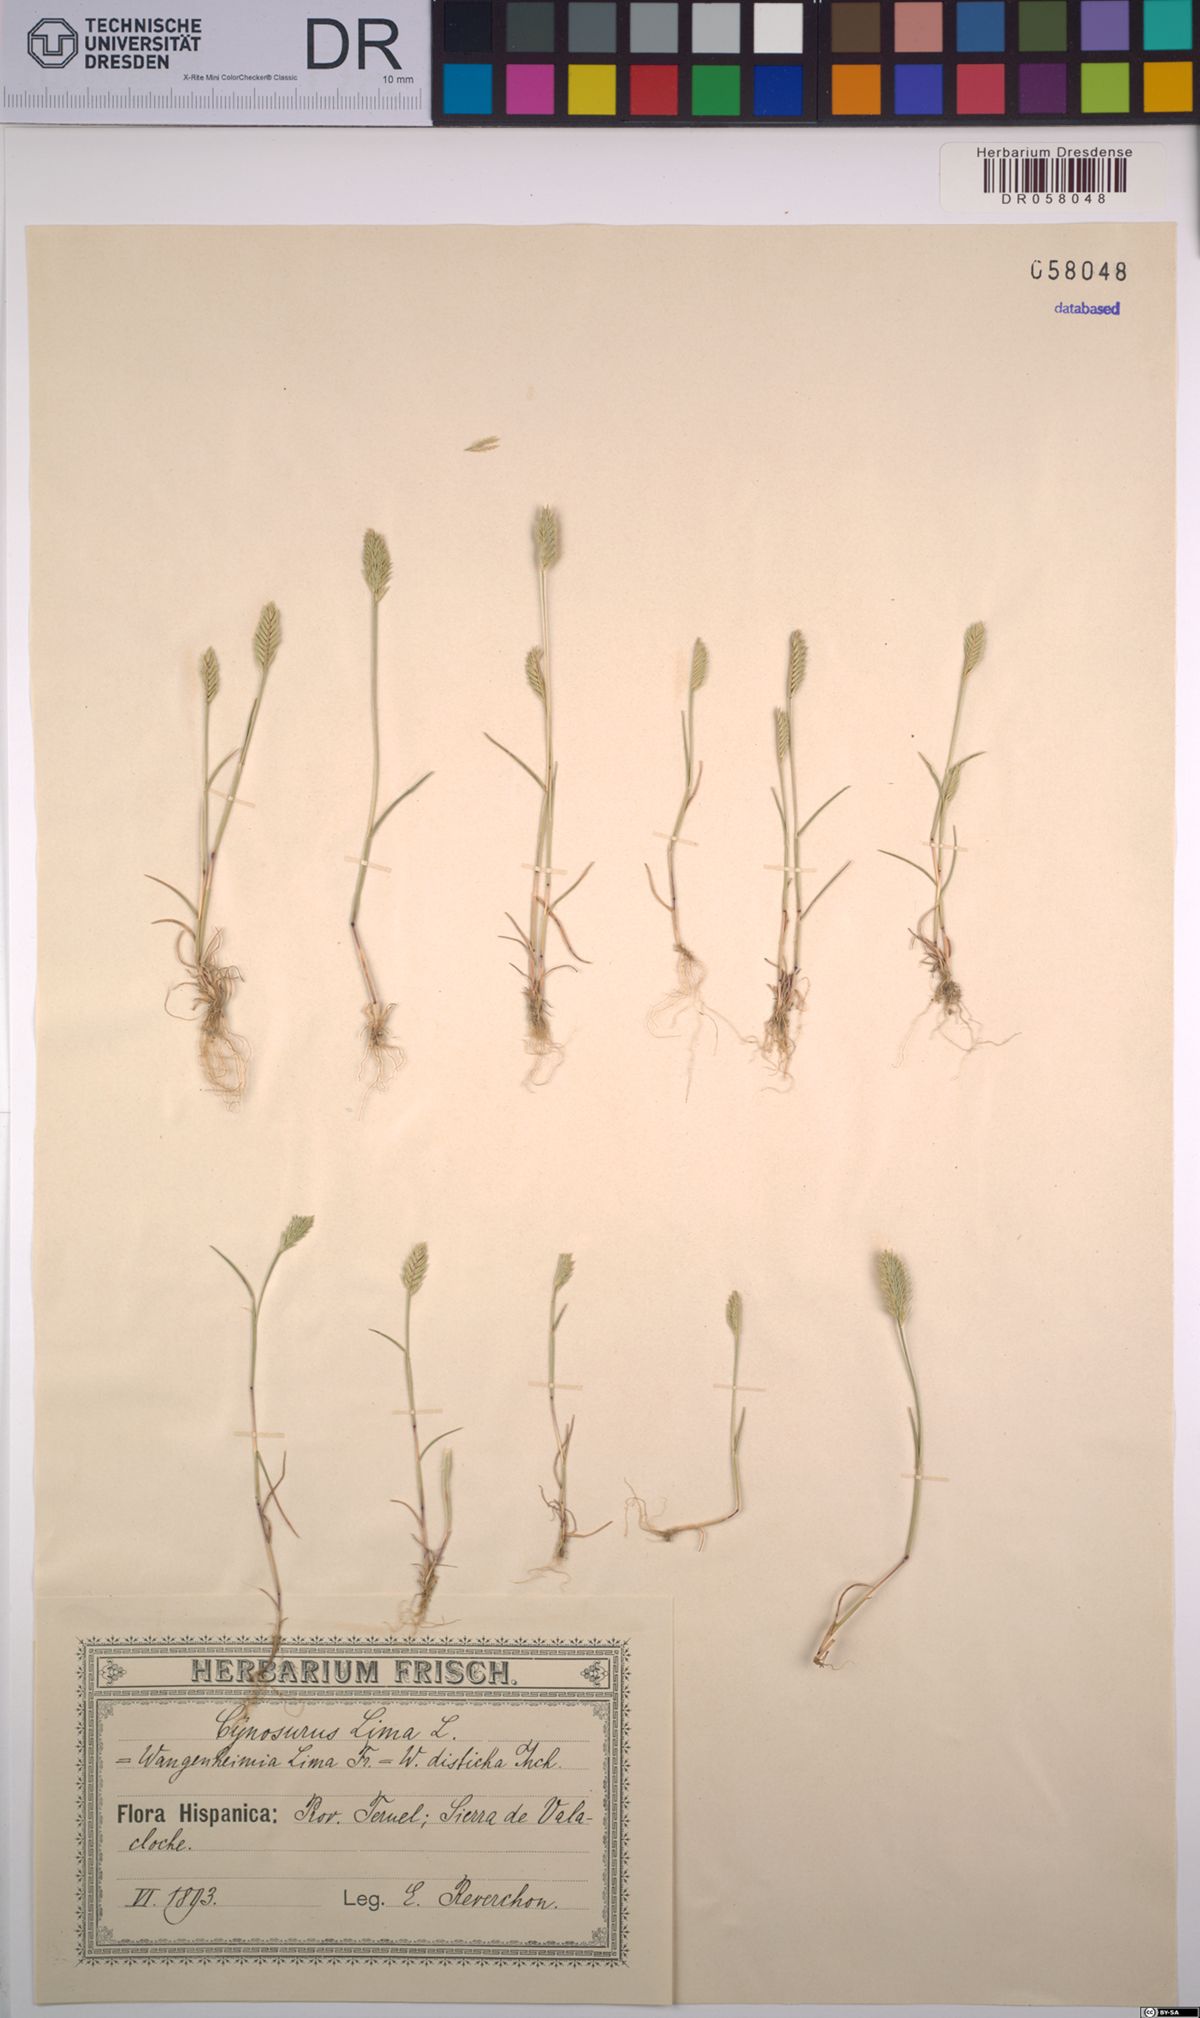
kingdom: Plantae
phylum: Tracheophyta
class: Liliopsida
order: Poales
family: Poaceae
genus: Wangenheimia
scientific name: Wangenheimia lima
